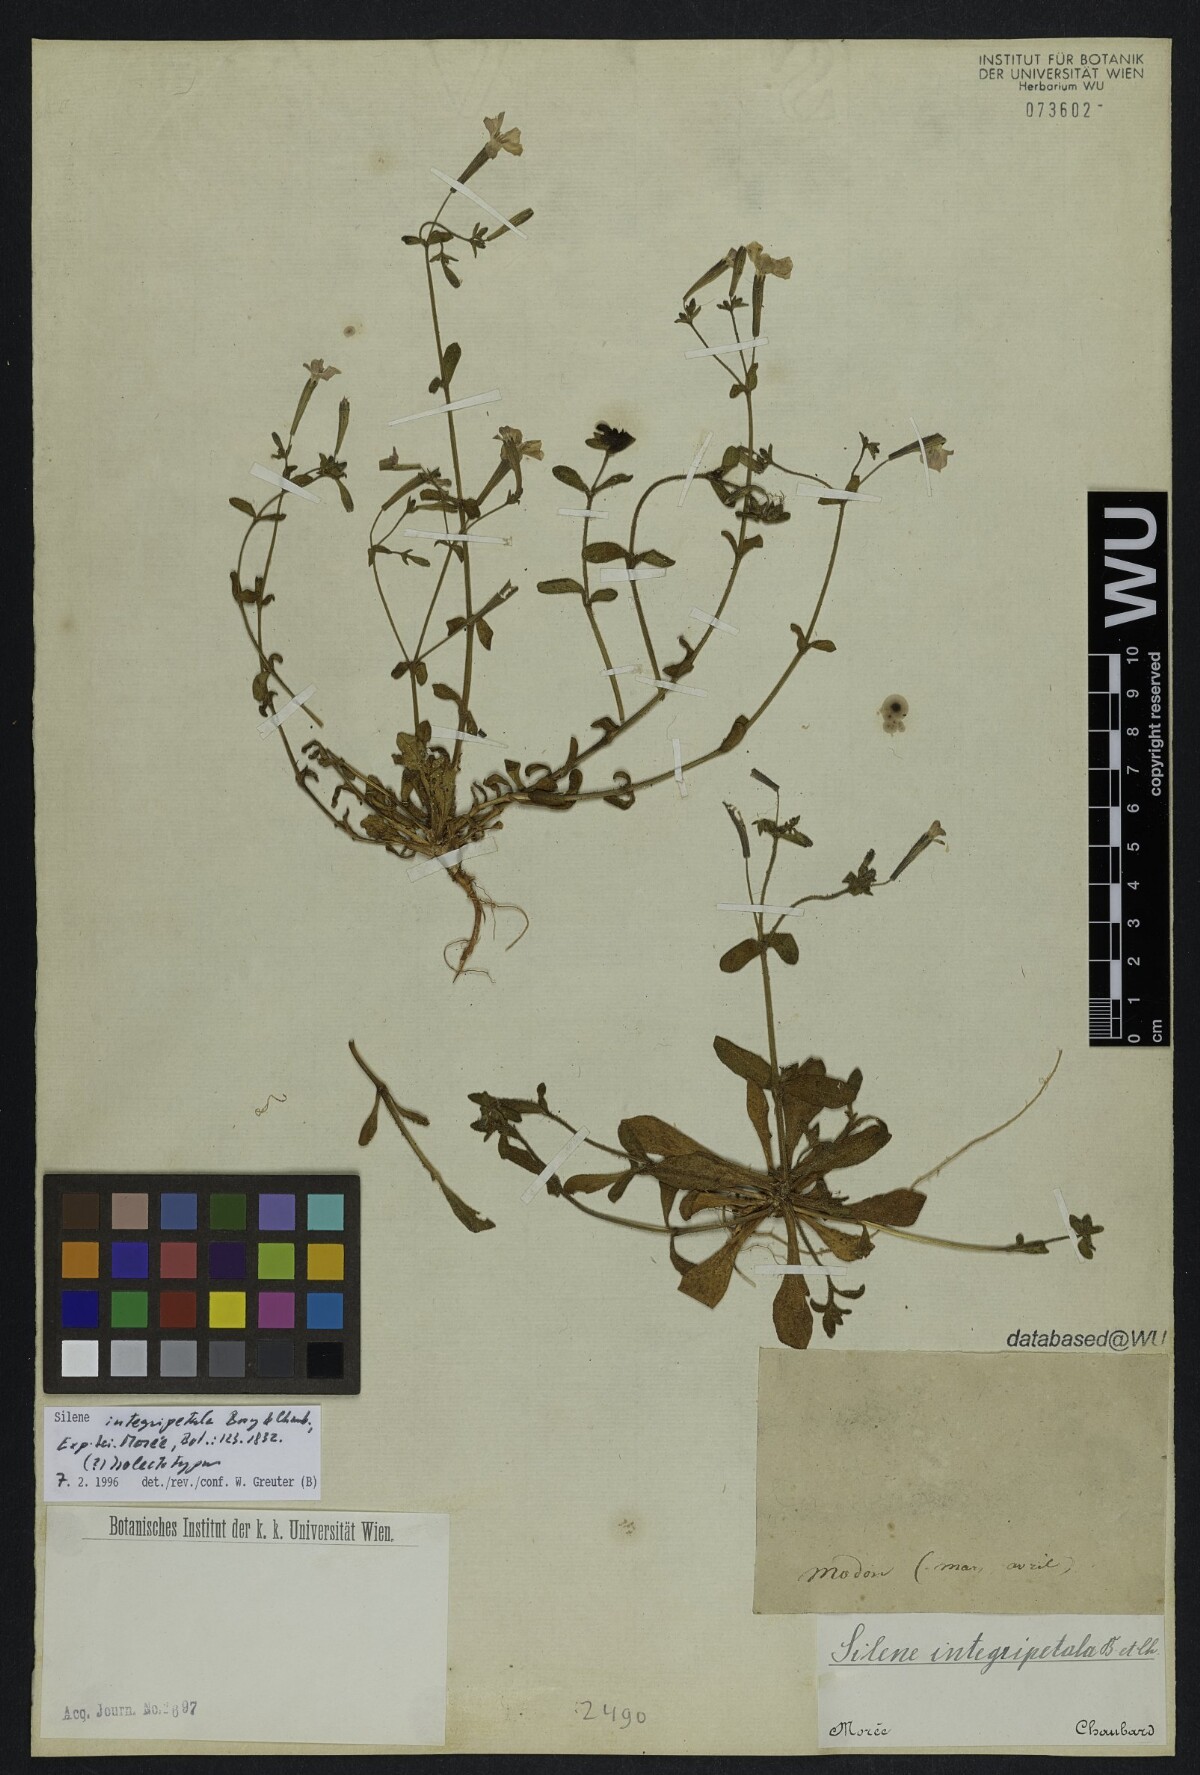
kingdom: Plantae
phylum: Tracheophyta
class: Magnoliopsida
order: Caryophyllales
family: Caryophyllaceae
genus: Silene
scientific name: Silene integripetala
